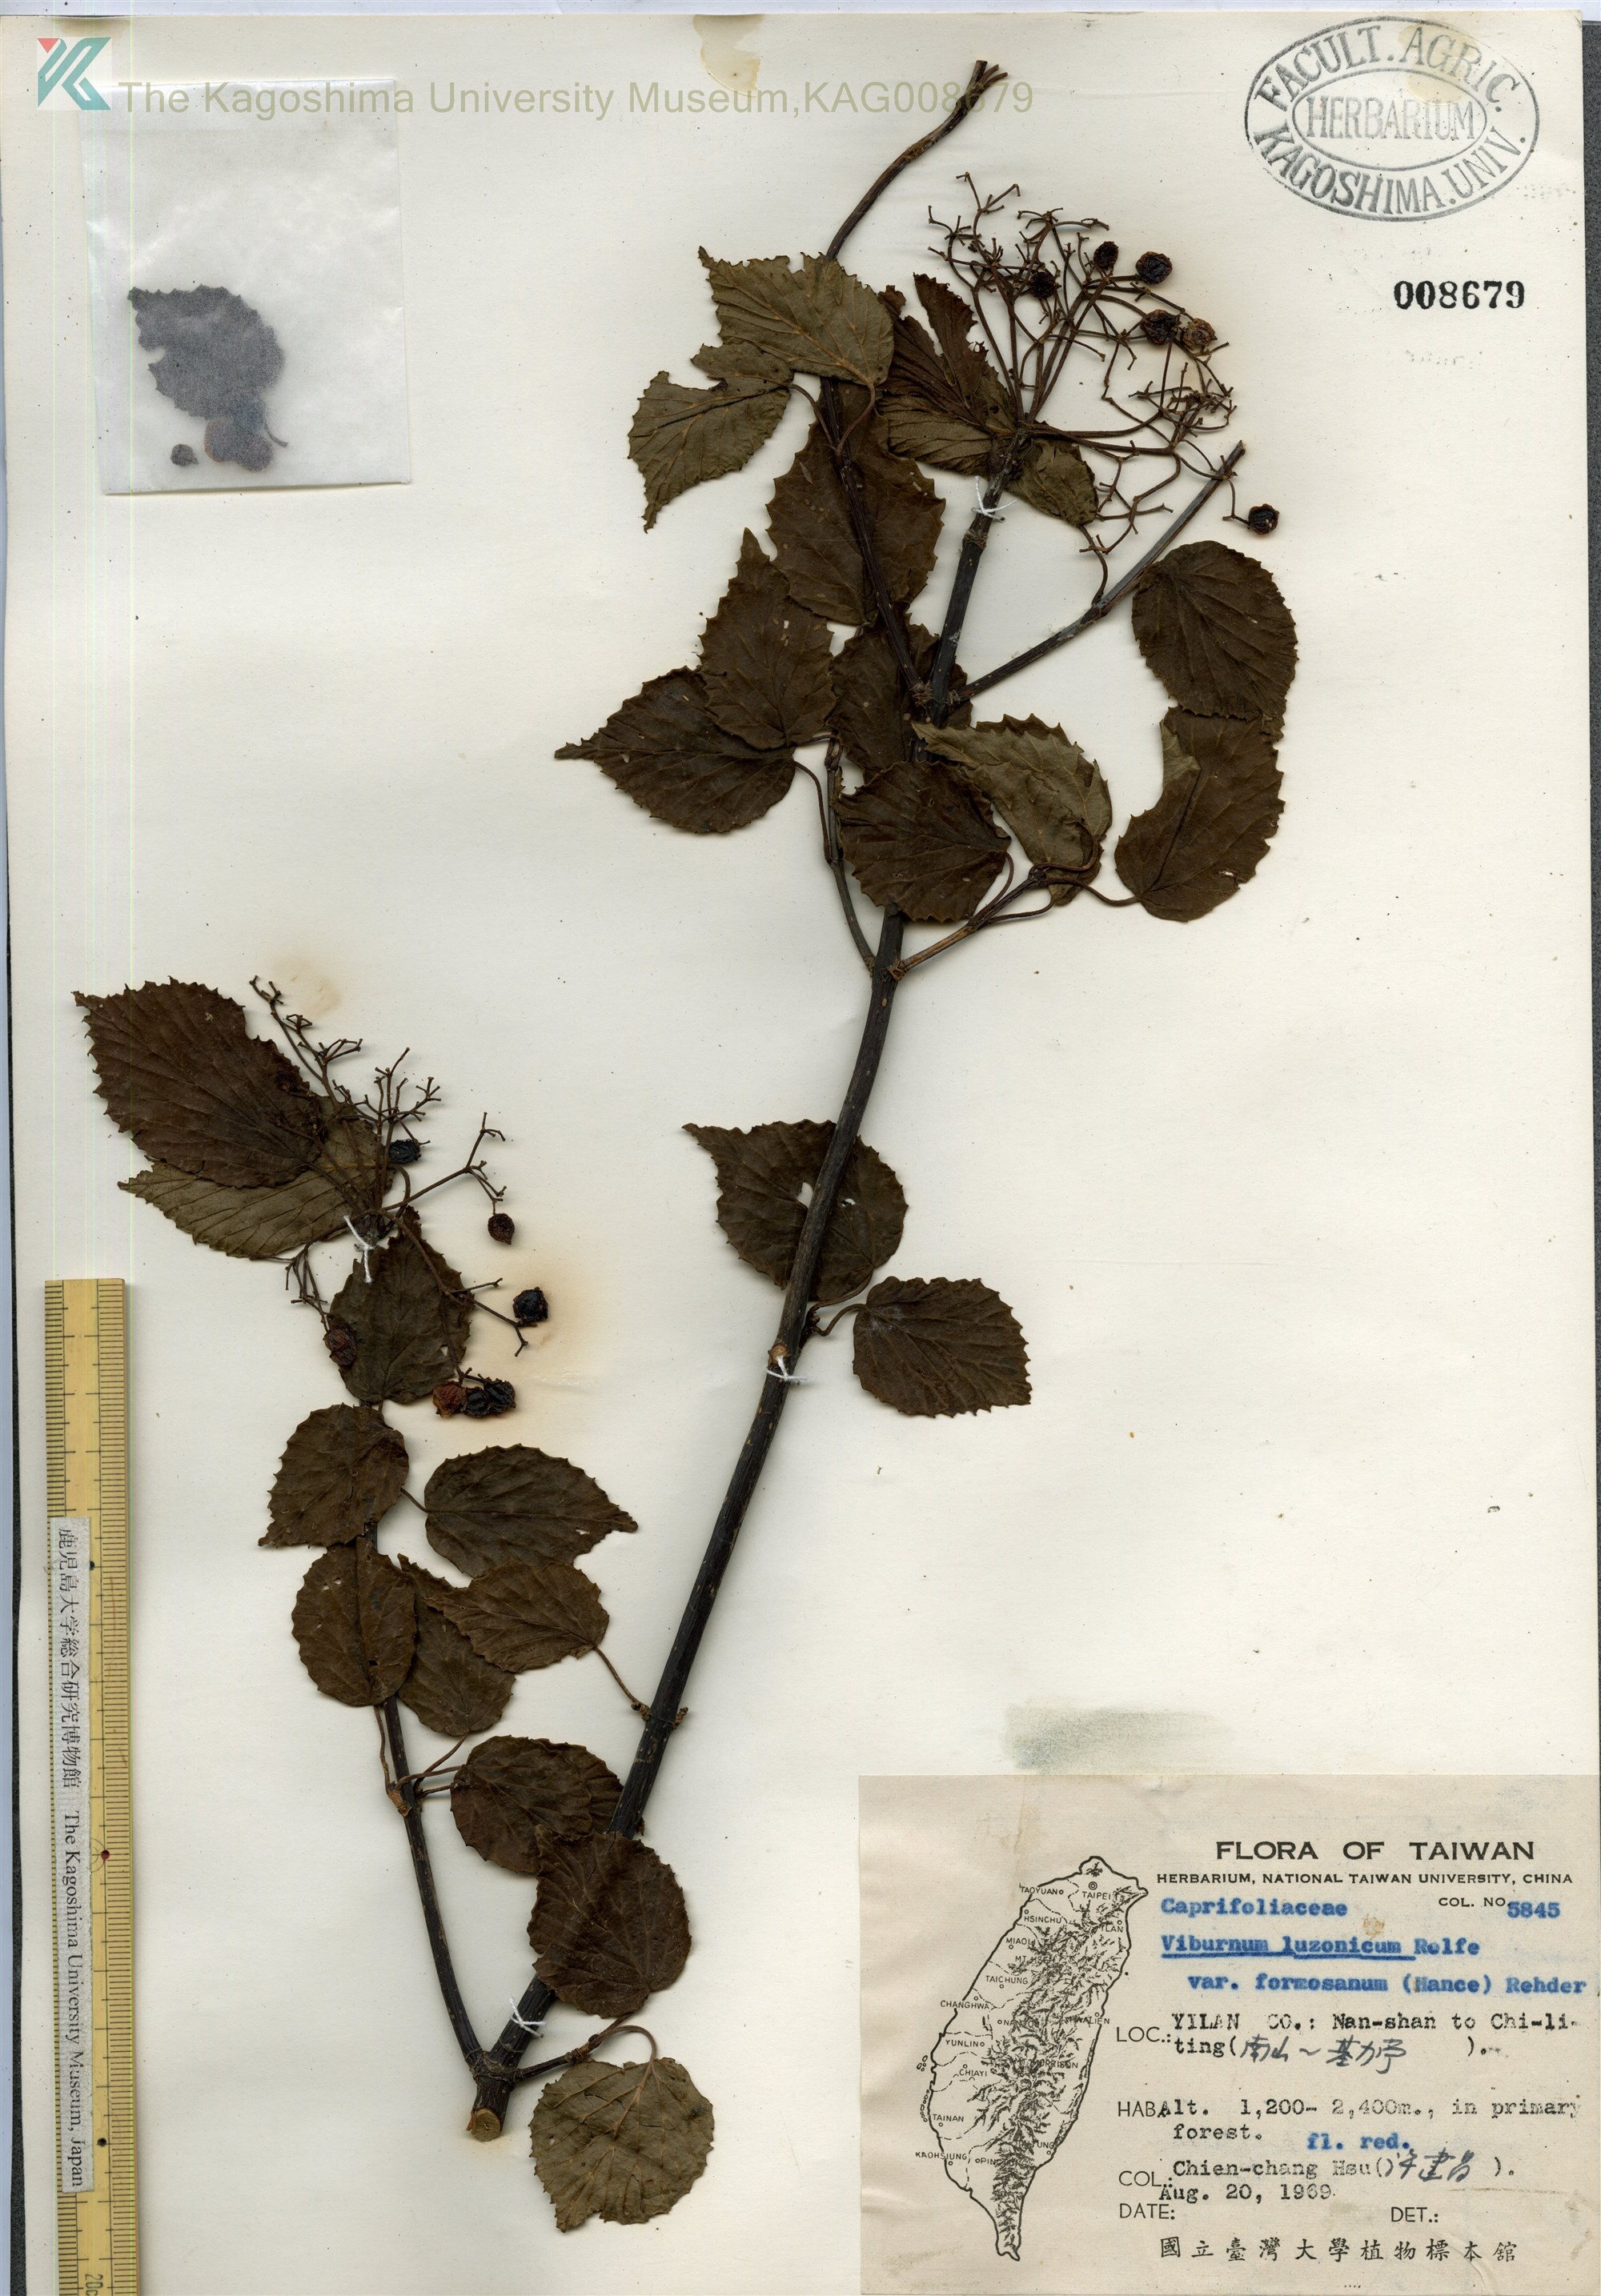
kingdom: Plantae
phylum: Tracheophyta
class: Magnoliopsida
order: Dipsacales
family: Viburnaceae
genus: Viburnum
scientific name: Viburnum mullaha
